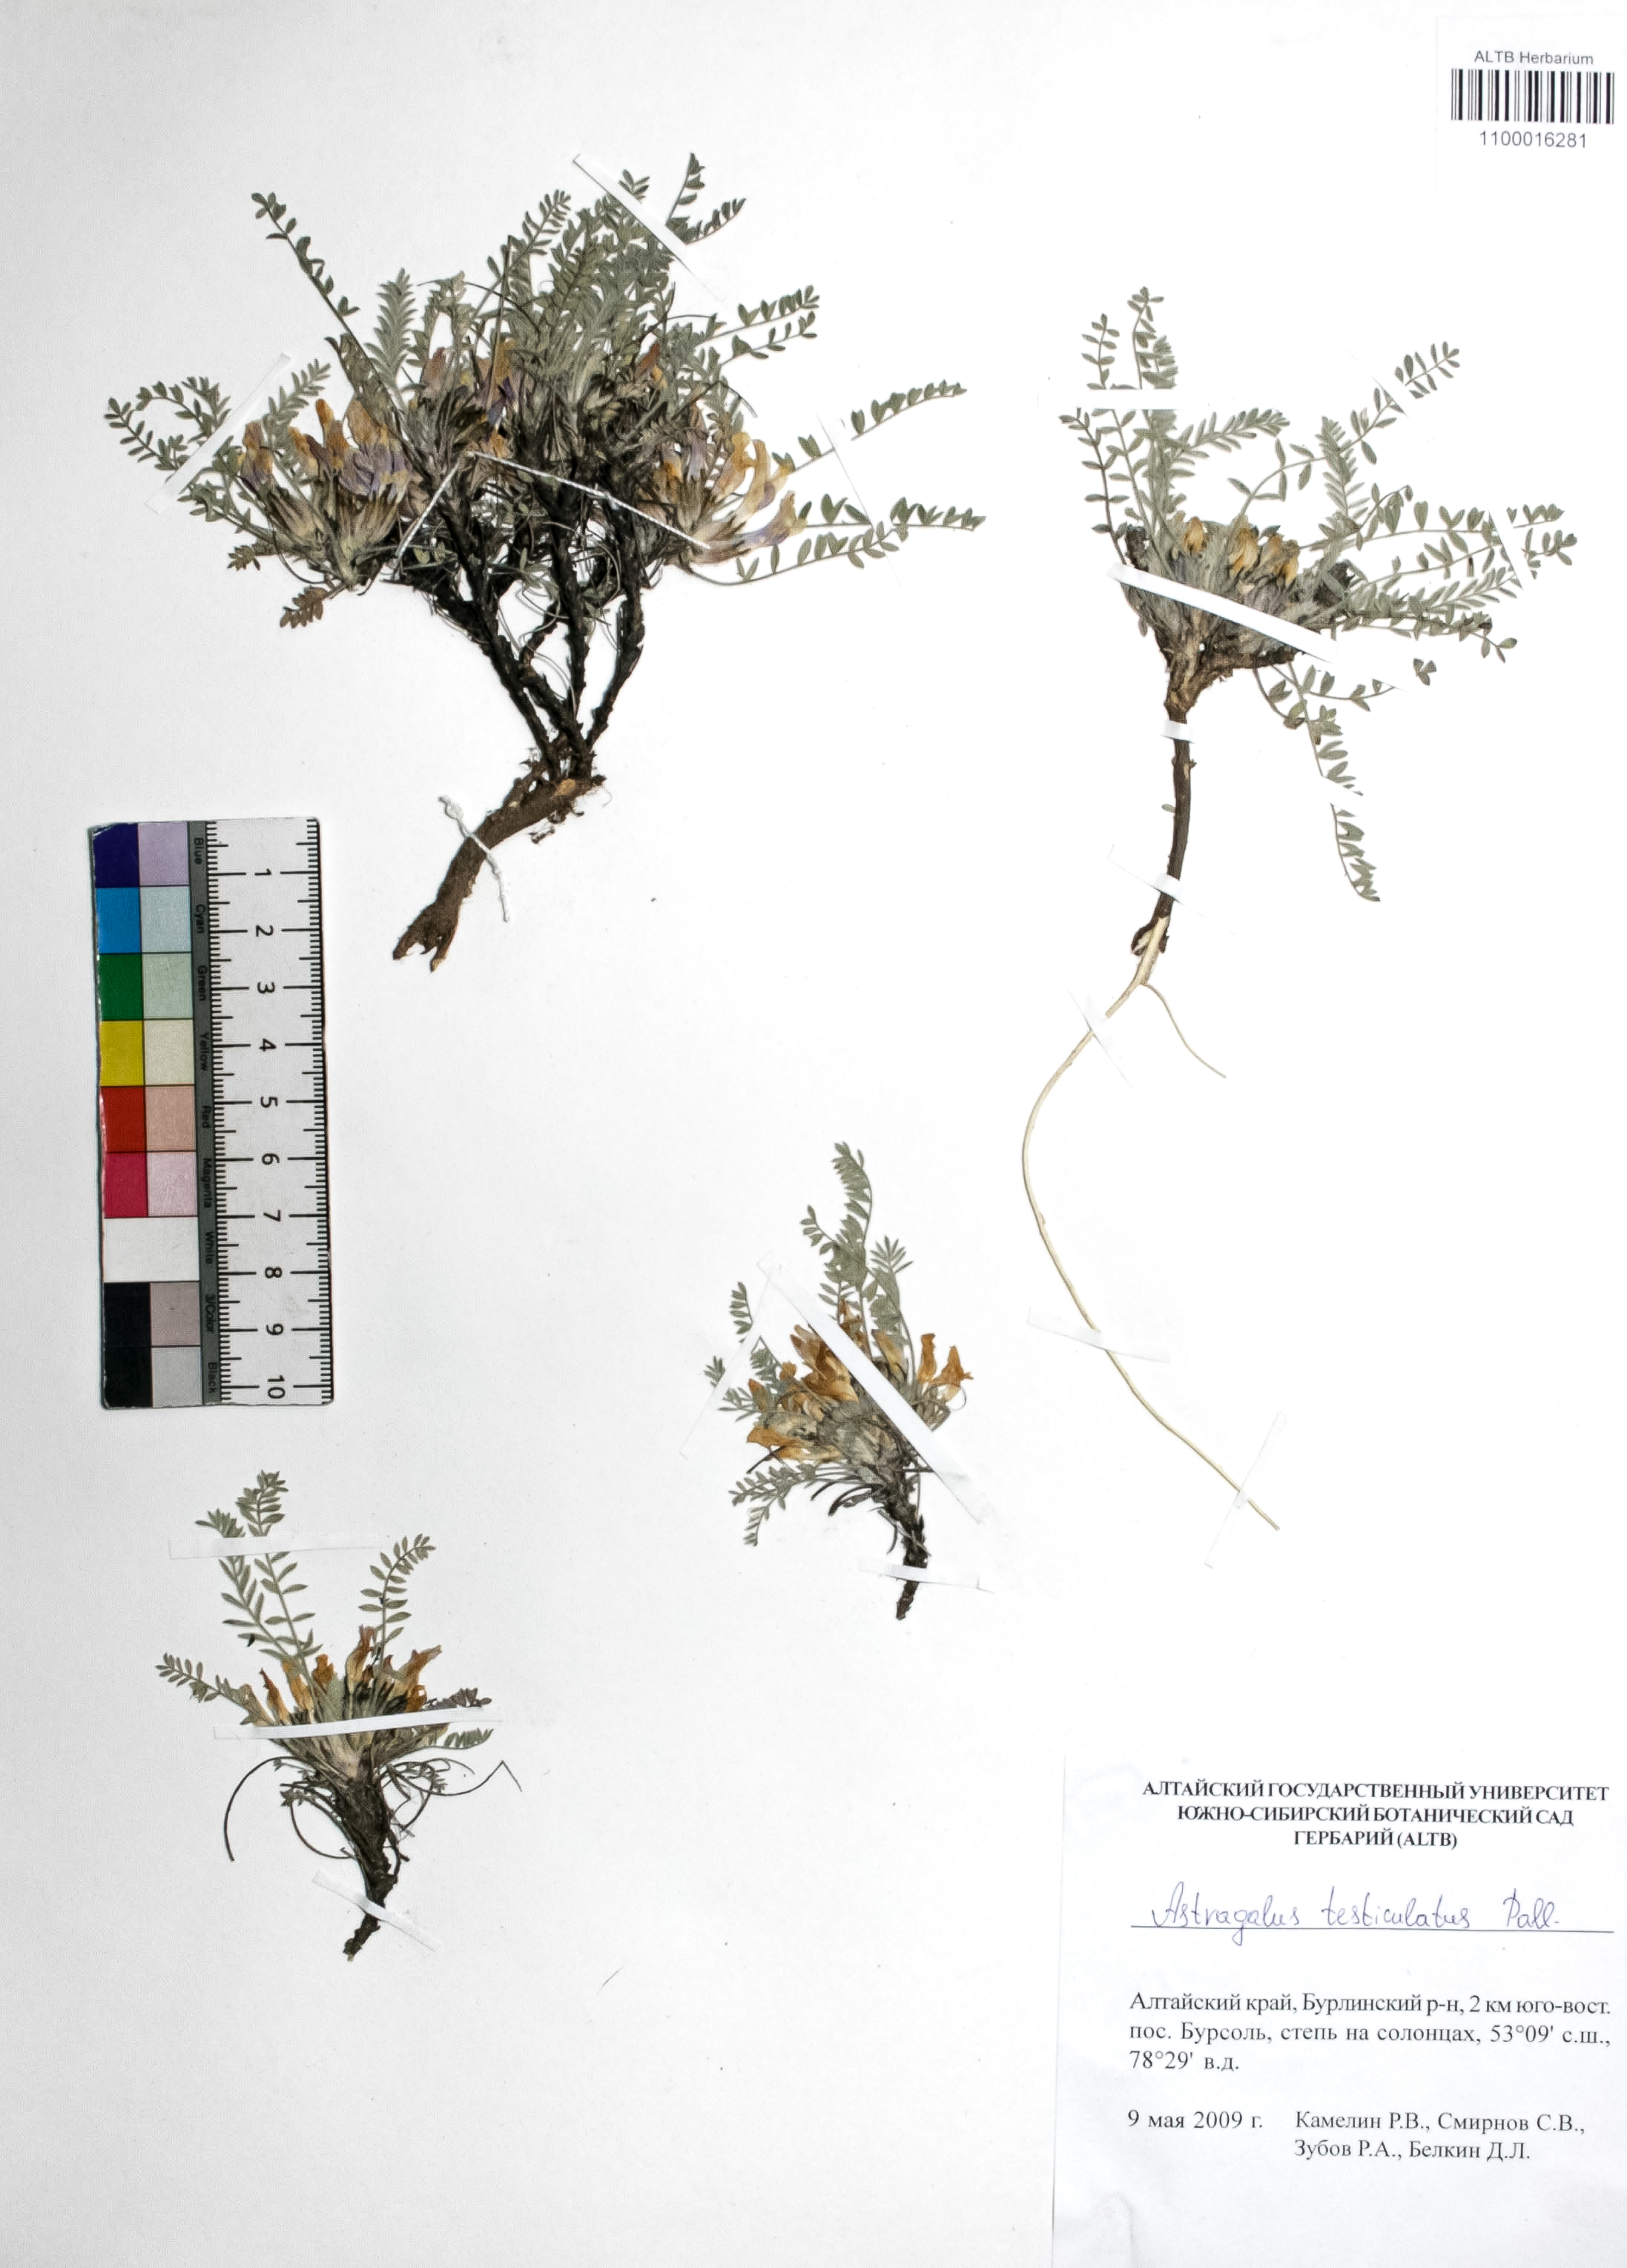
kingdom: Plantae
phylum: Tracheophyta
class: Magnoliopsida
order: Fabales
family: Fabaceae
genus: Astragalus
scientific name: Astragalus testiculatus
